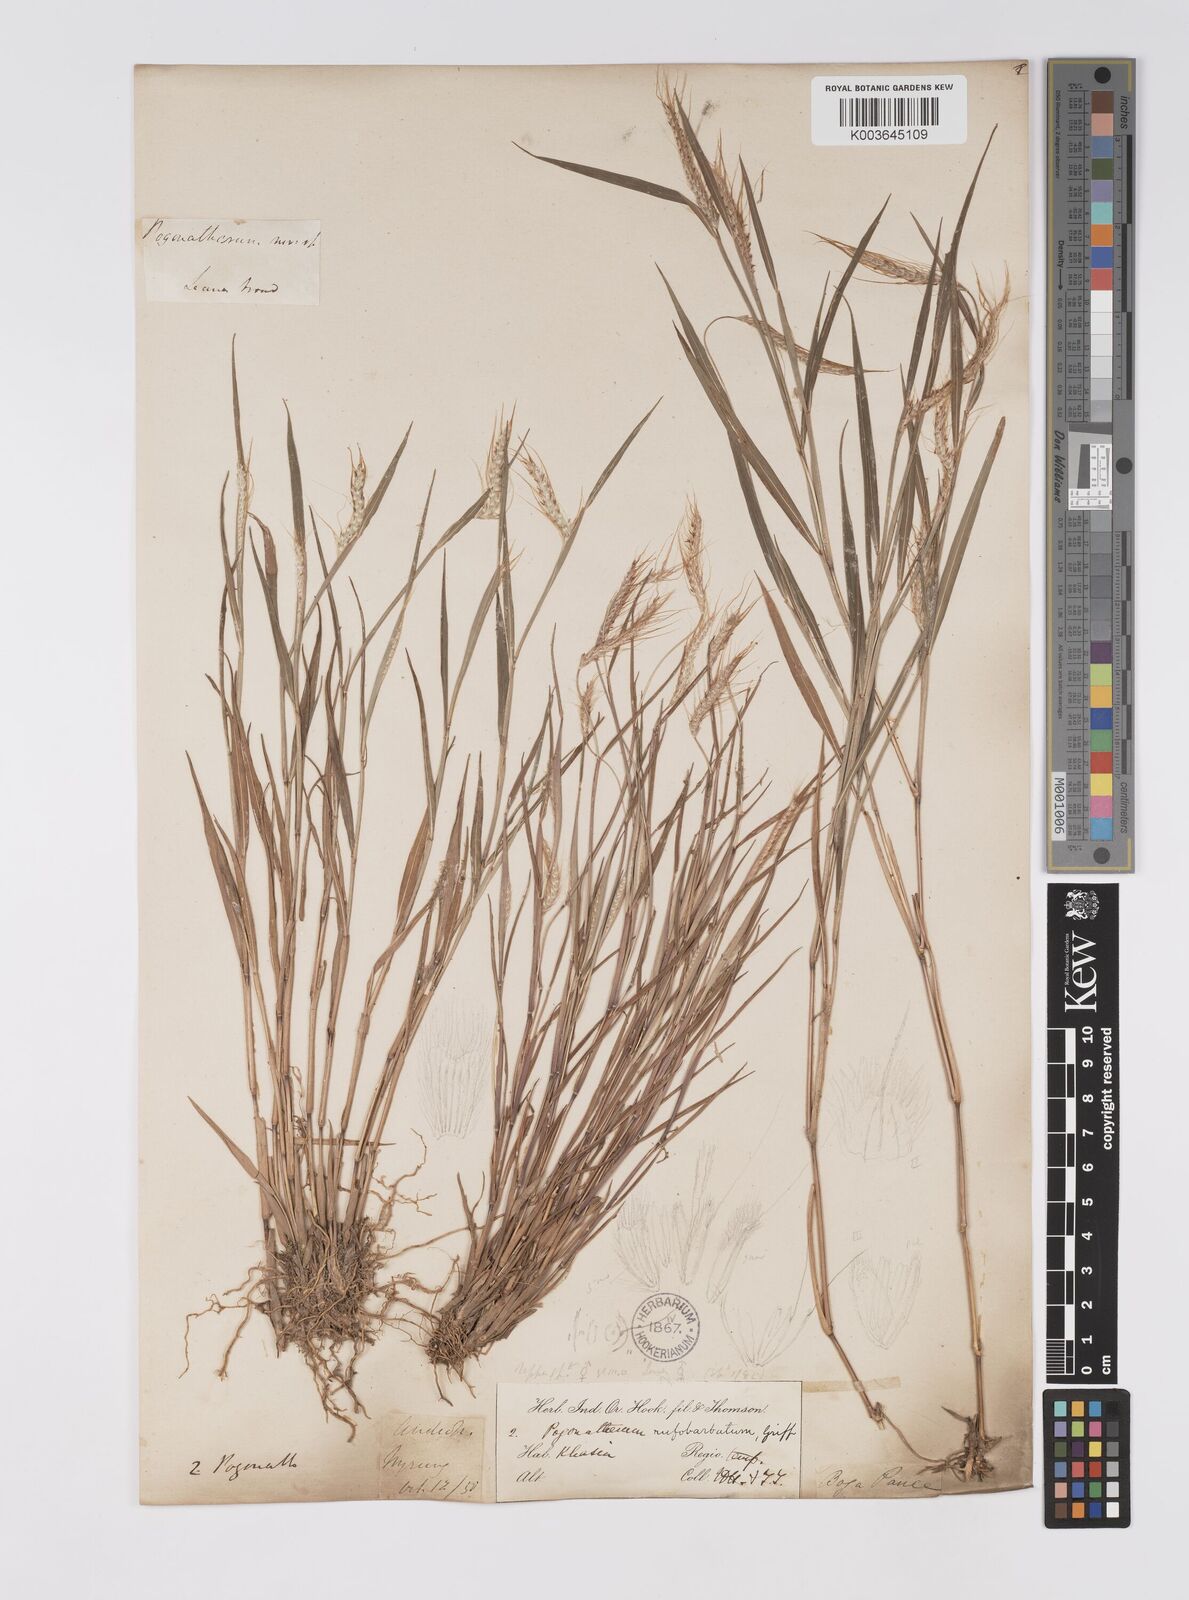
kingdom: Plantae
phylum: Tracheophyta
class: Liliopsida
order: Poales
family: Poaceae
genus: Pogonatherum
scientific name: Pogonatherum rufobarbatum
